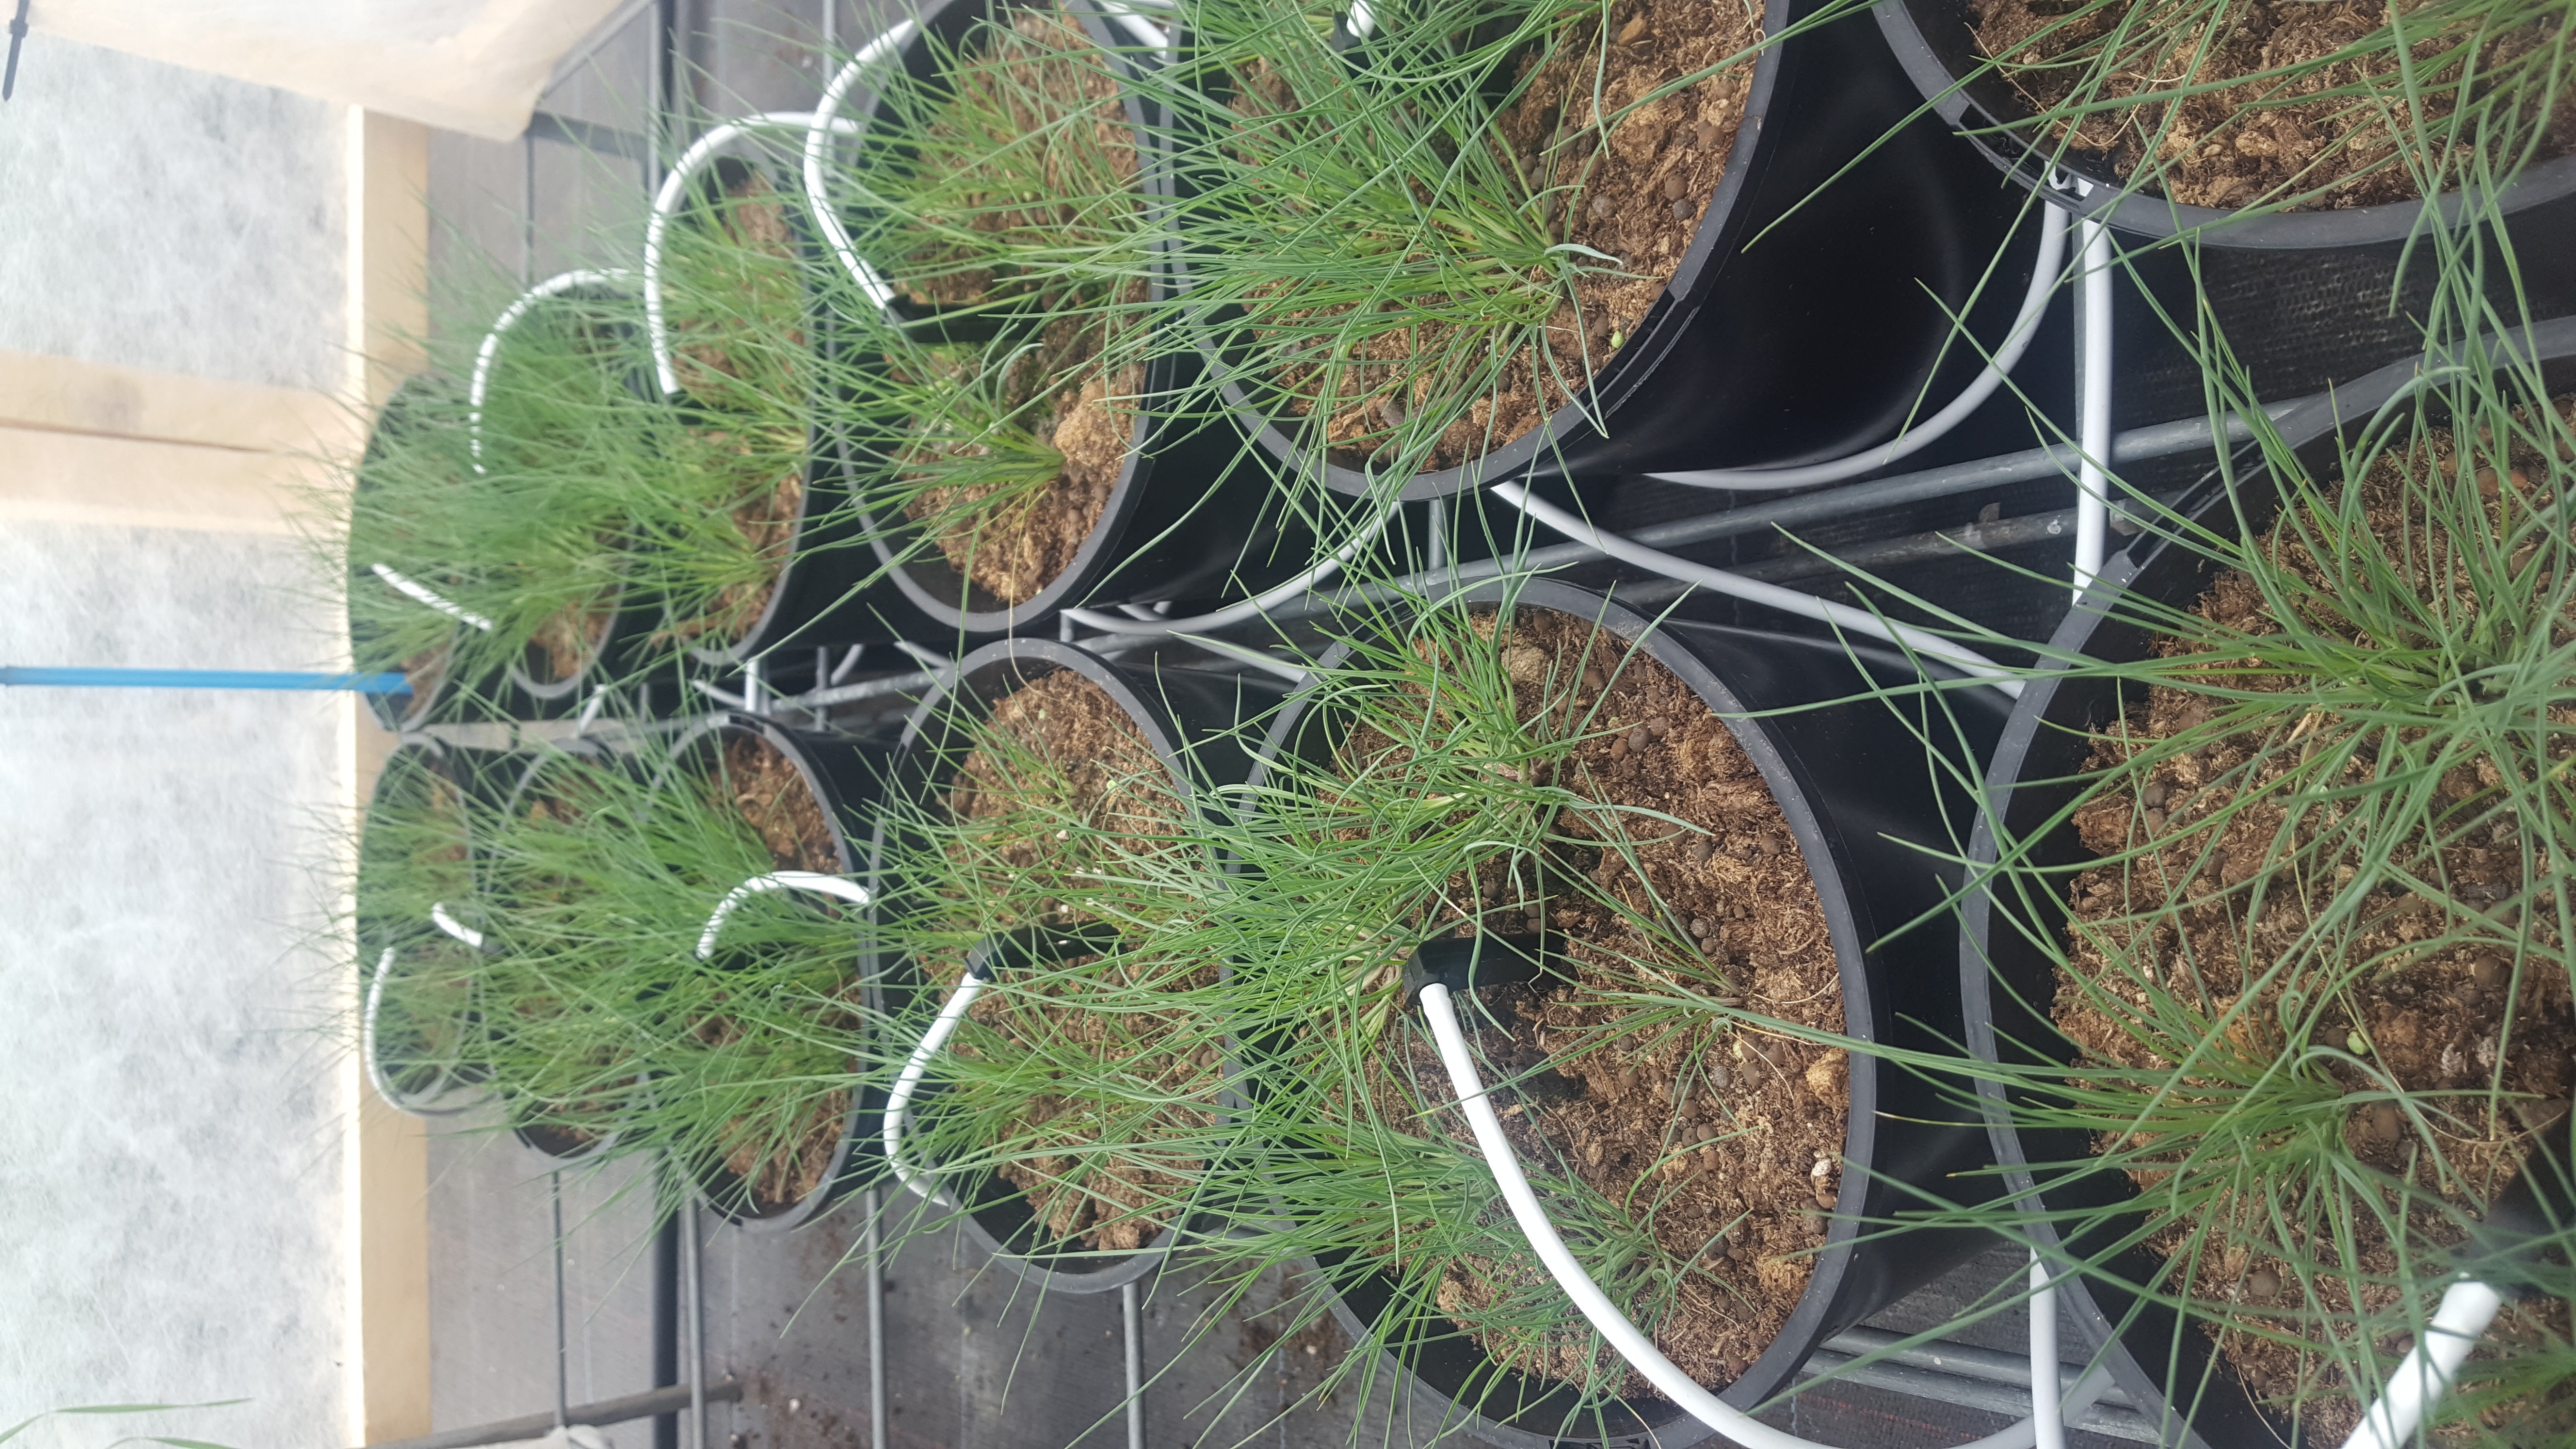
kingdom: Plantae
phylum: Tracheophyta
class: Liliopsida
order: Poales
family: Poaceae
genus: Hordeum
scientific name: Hordeum patagonicum
